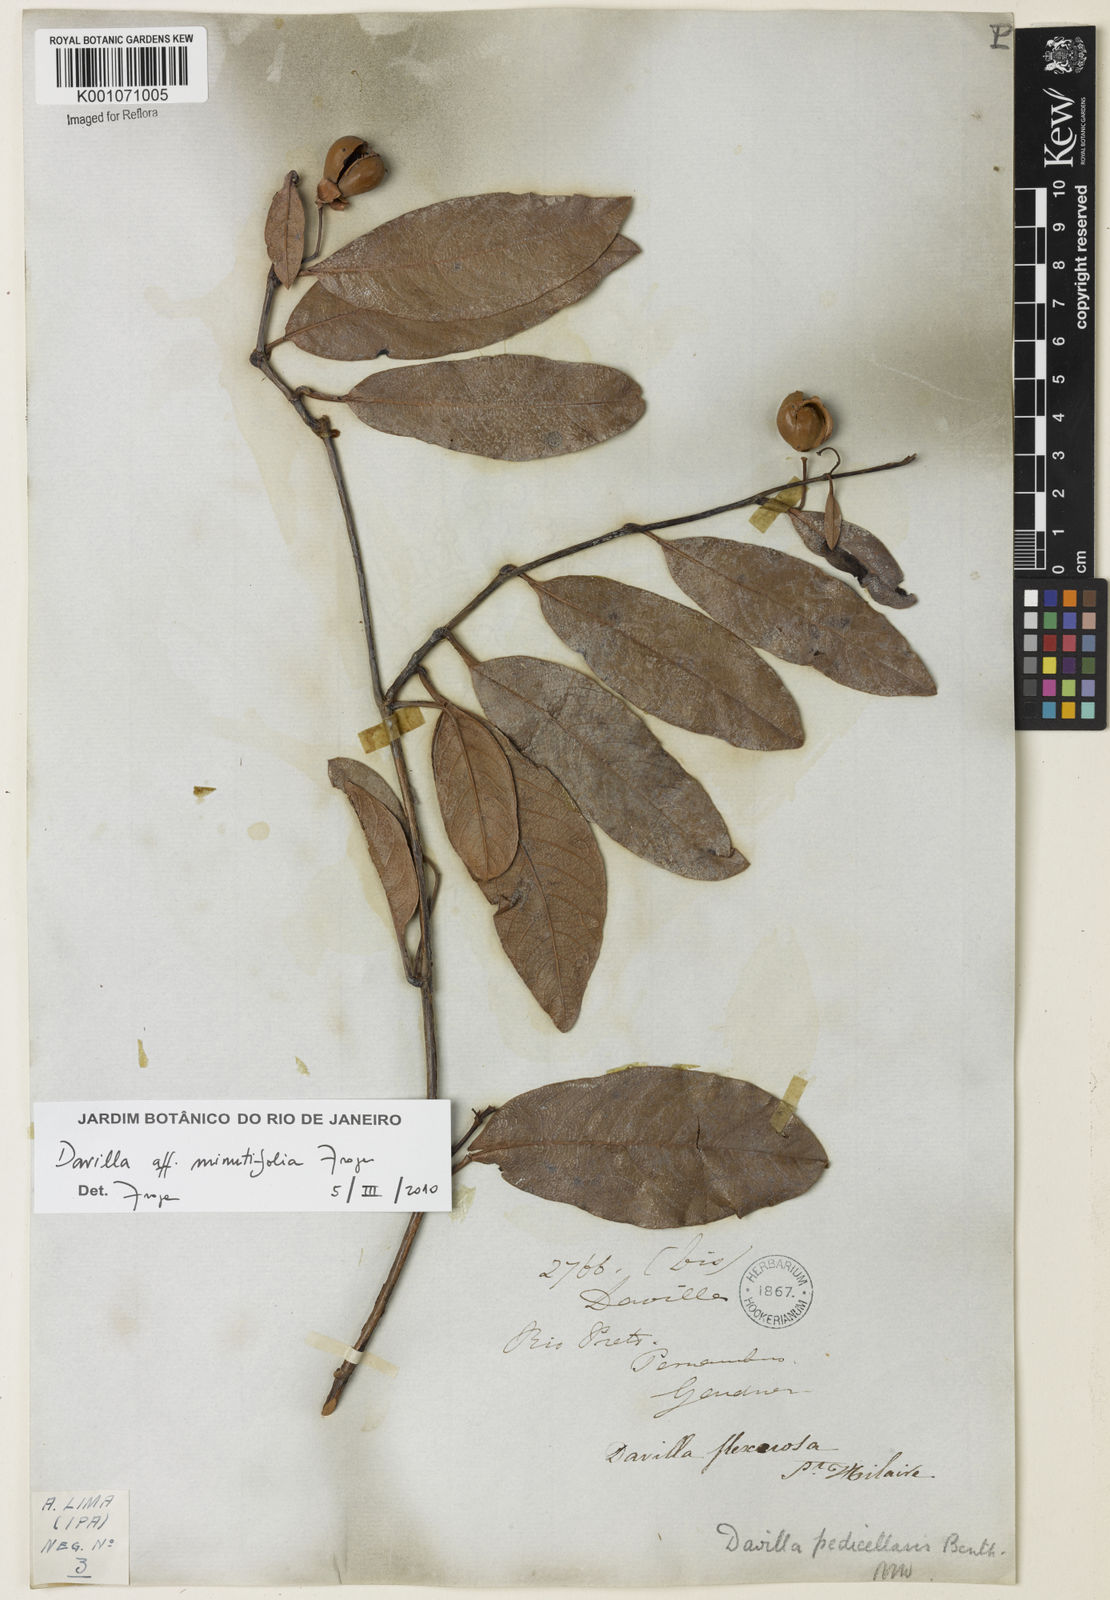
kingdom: Plantae
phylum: Tracheophyta
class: Magnoliopsida
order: Dilleniales
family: Dilleniaceae
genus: Davilla
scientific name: Davilla minutifolia
